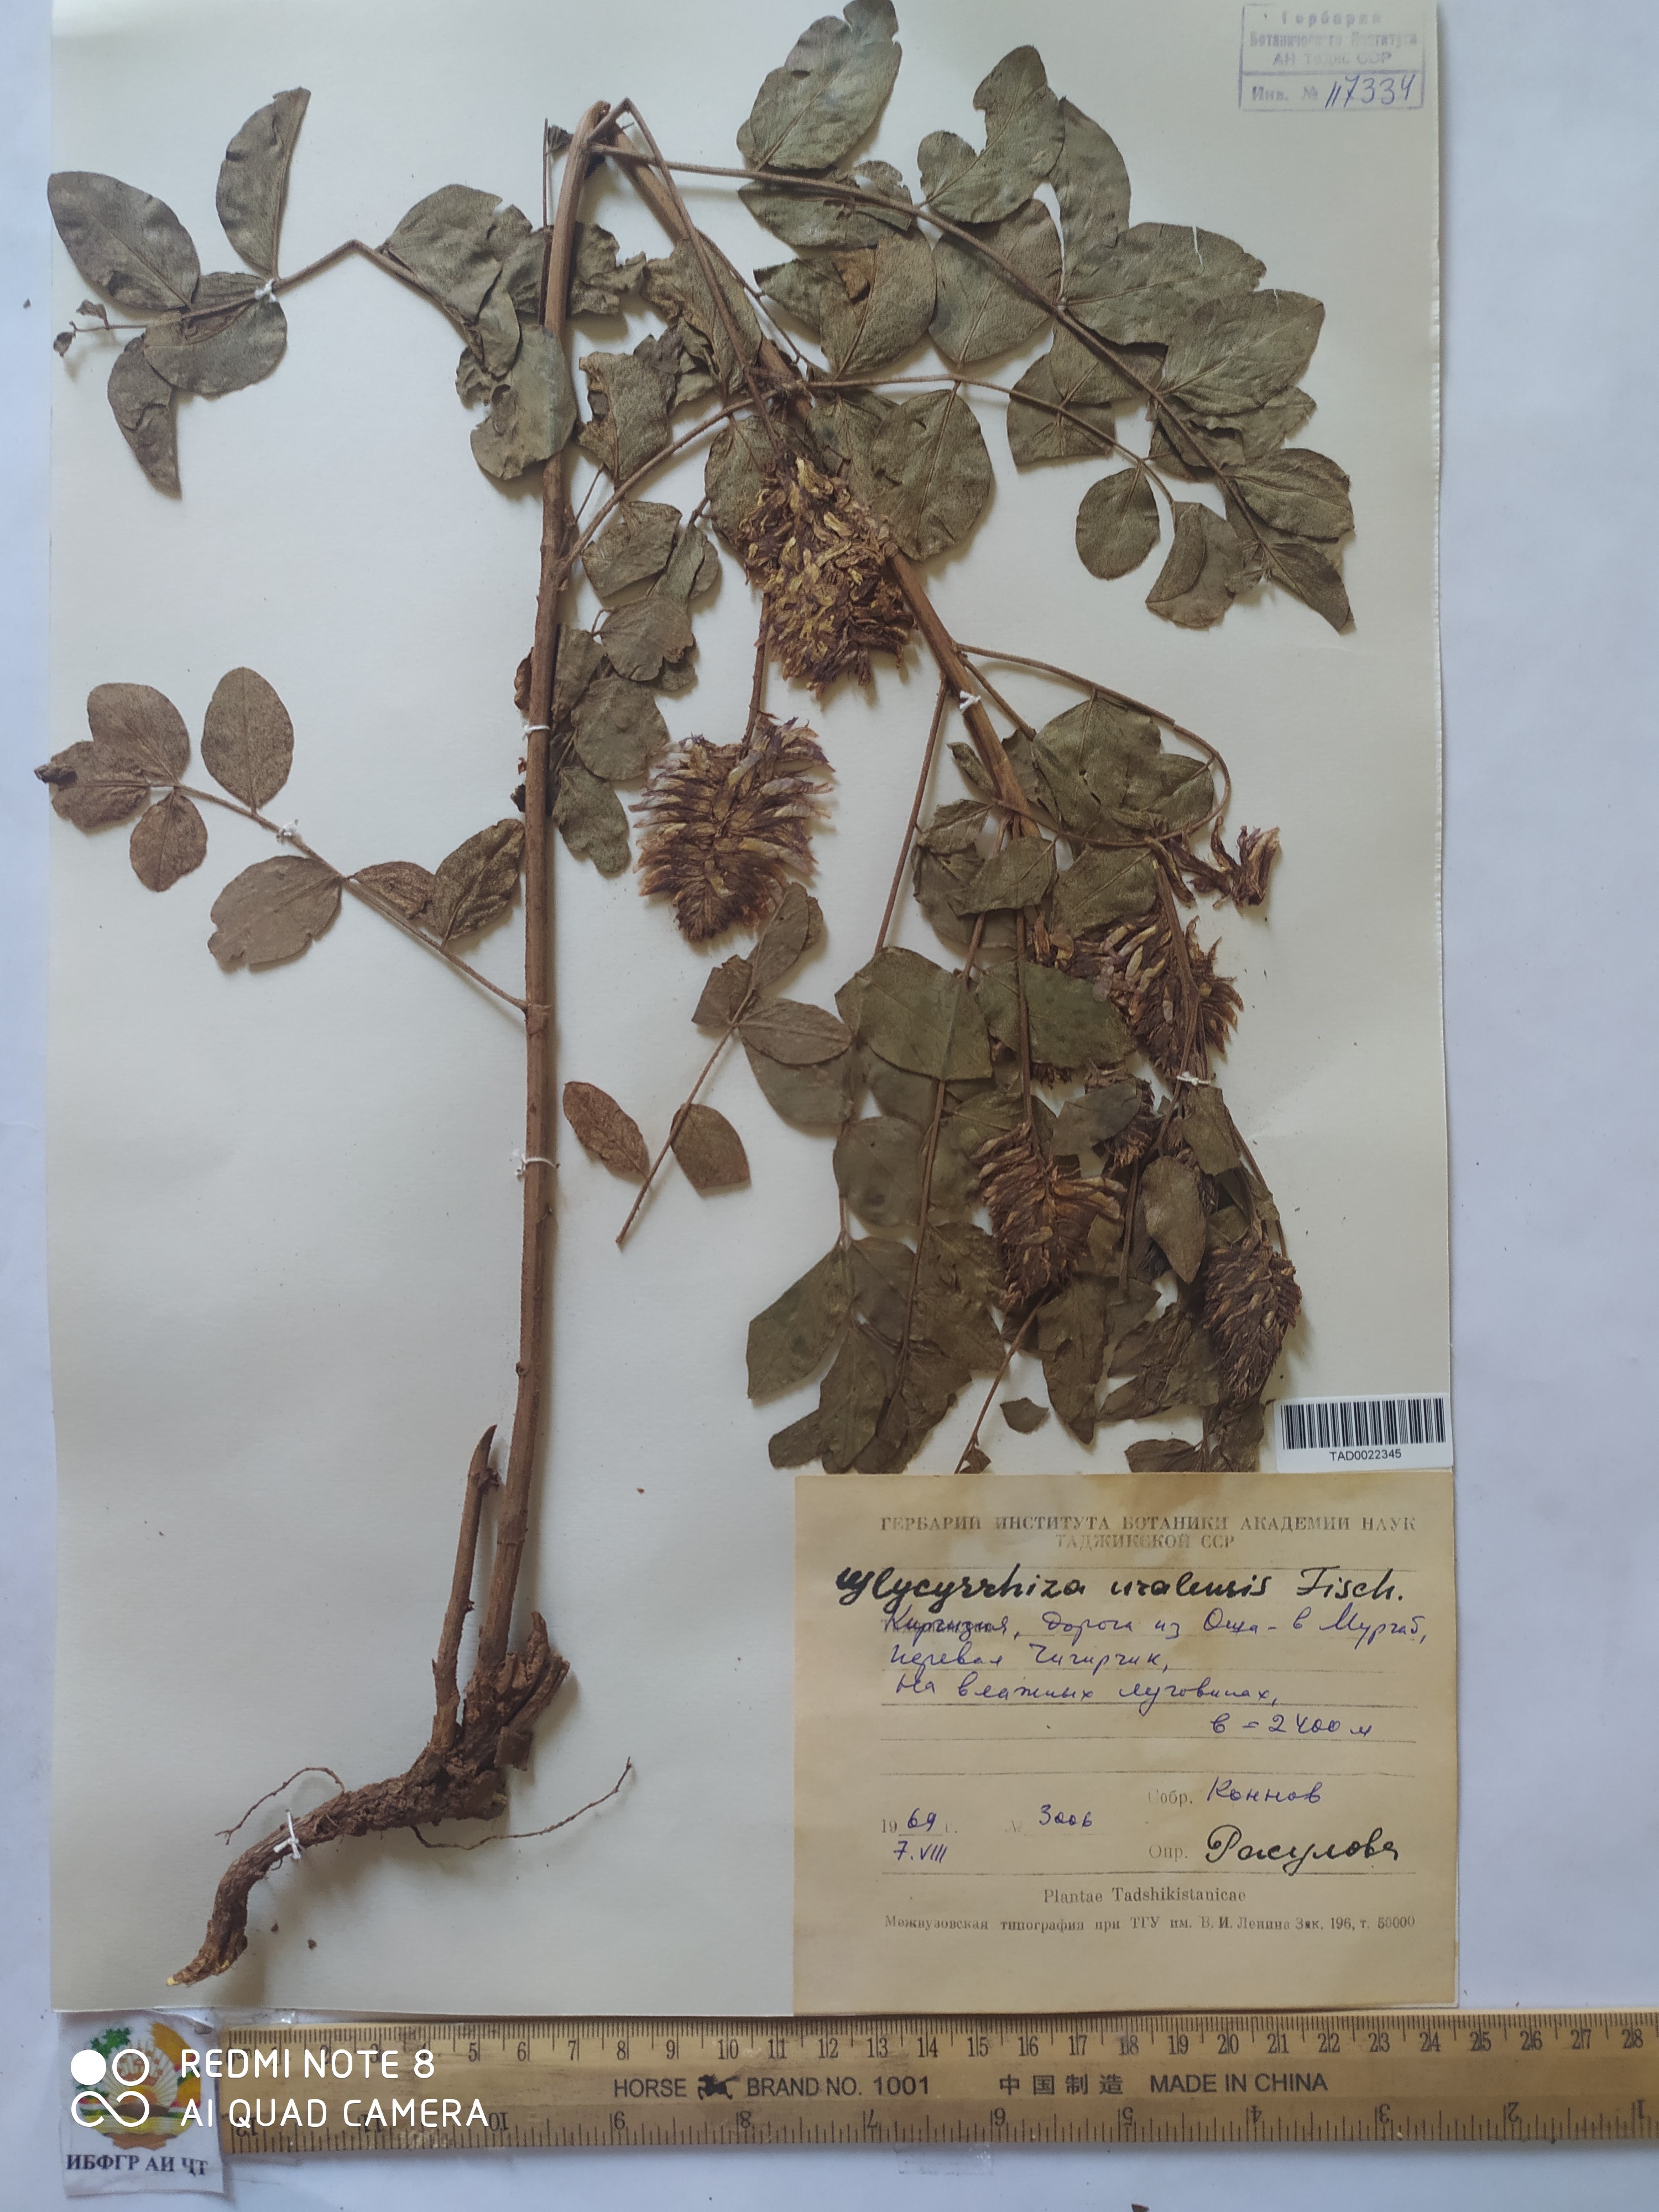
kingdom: Plantae
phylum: Tracheophyta
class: Magnoliopsida
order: Fabales
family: Fabaceae
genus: Glycyrrhiza
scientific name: Glycyrrhiza uralensis
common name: Chinese licorice
